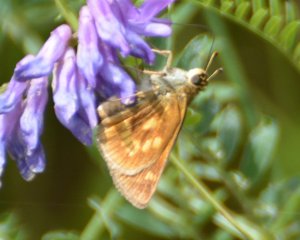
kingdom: Animalia
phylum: Arthropoda
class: Insecta
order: Lepidoptera
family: Hesperiidae
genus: Polites
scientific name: Polites
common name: Long Dash Skipper
